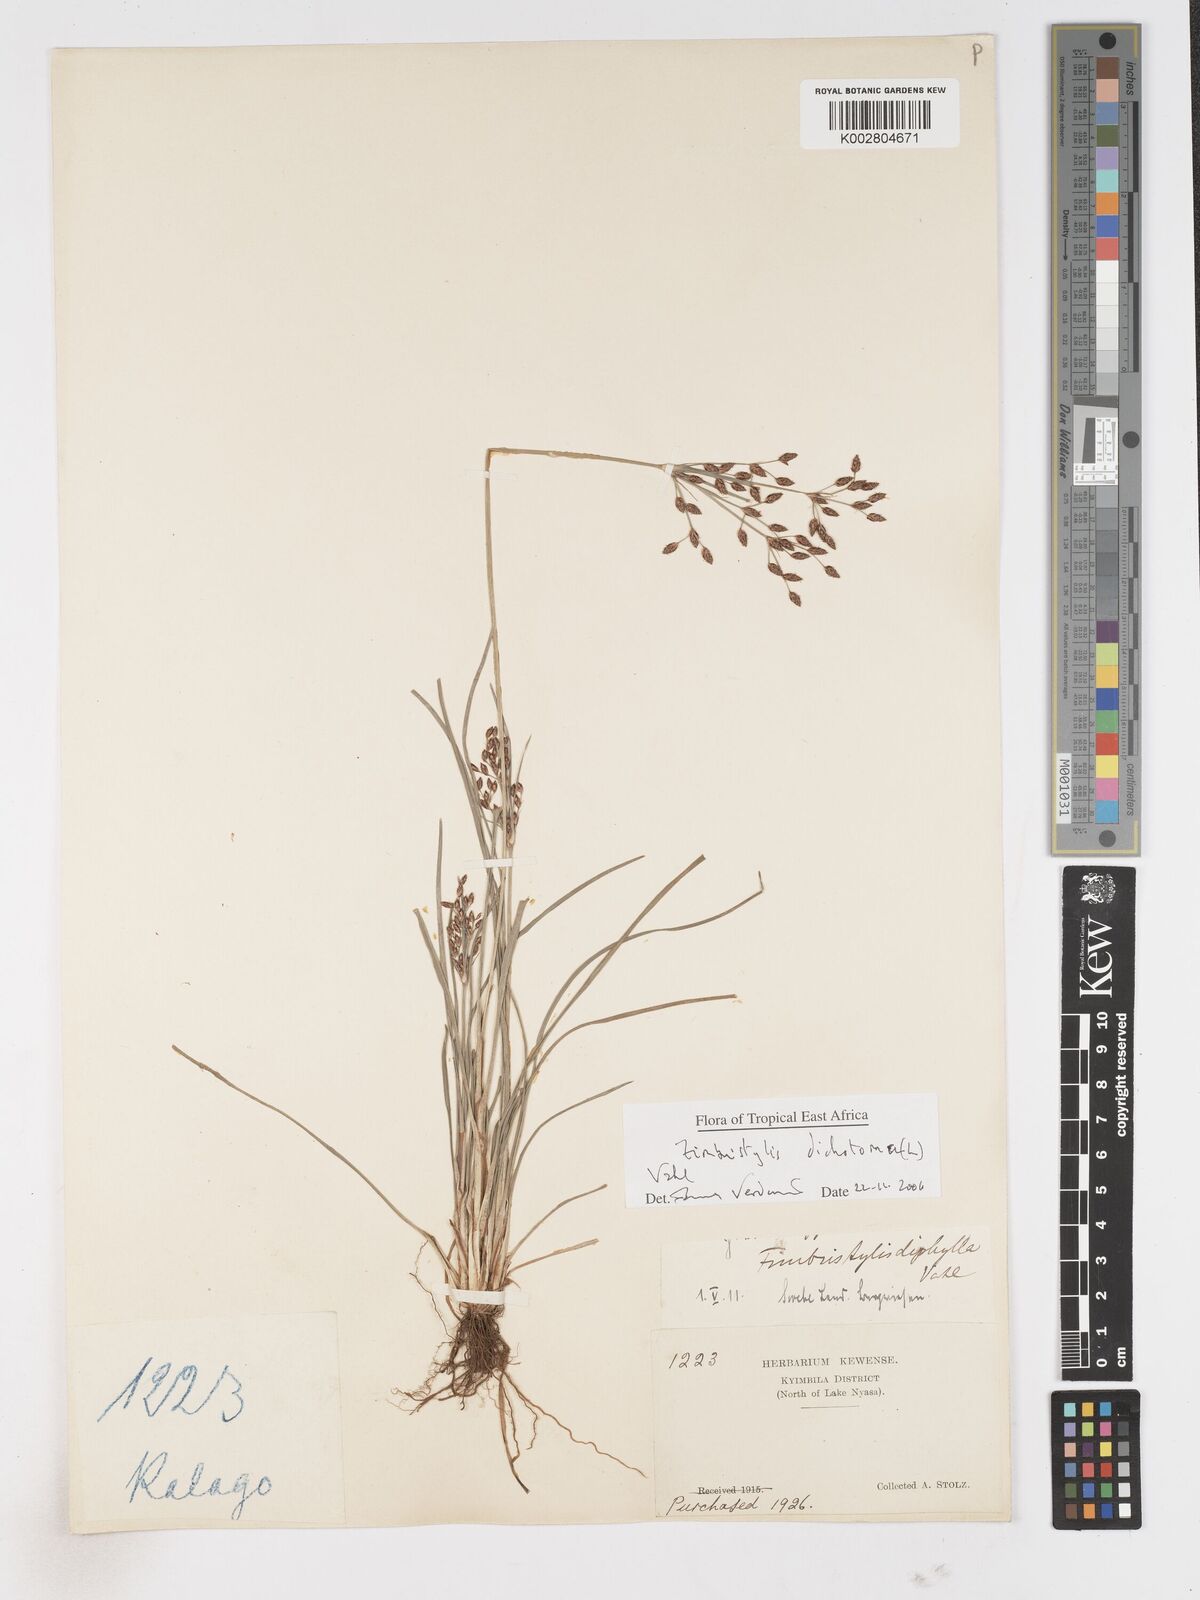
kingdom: Plantae
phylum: Tracheophyta
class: Liliopsida
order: Poales
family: Cyperaceae
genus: Fimbristylis
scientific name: Fimbristylis dichotoma
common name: Forked fimbry
